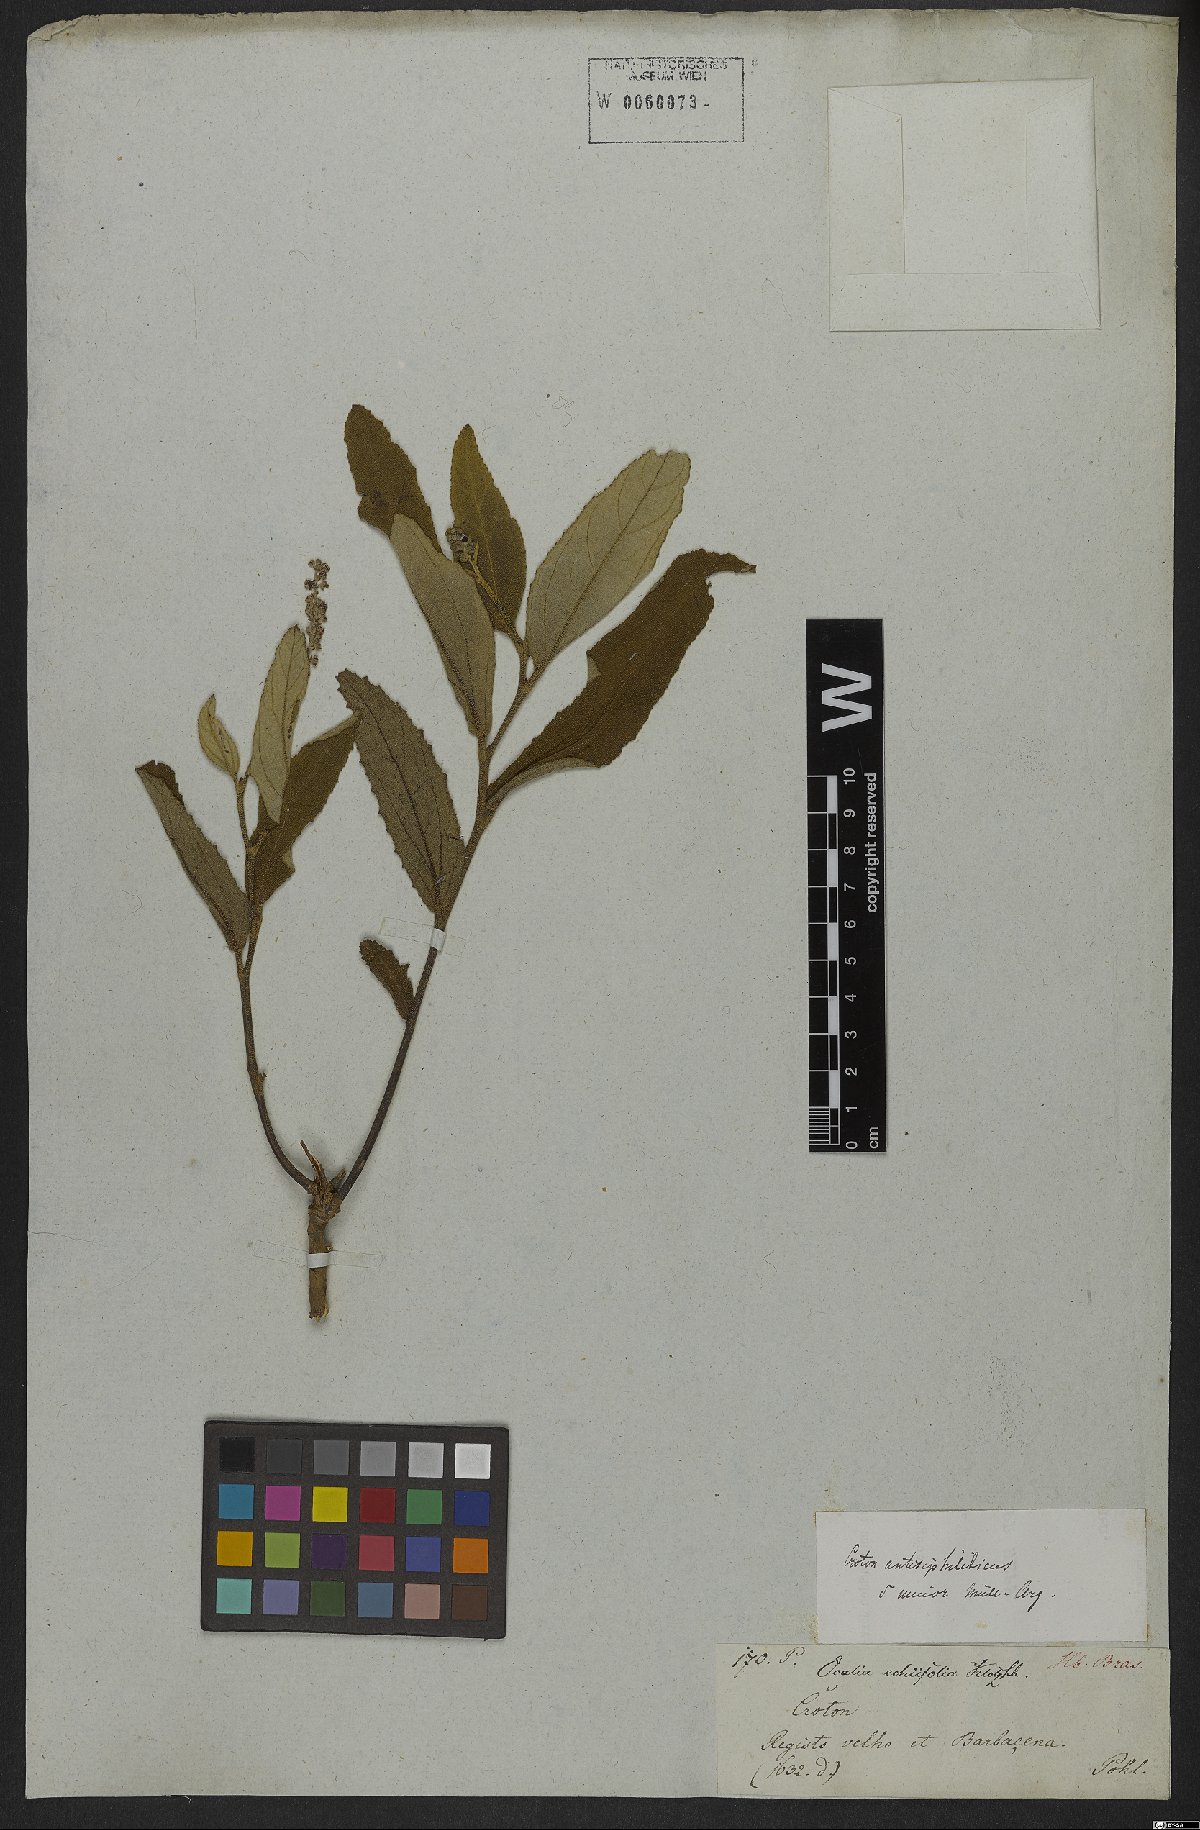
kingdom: Plantae
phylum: Tracheophyta
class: Magnoliopsida
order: Malpighiales
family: Euphorbiaceae
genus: Croton
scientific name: Croton antisyphiliticus
